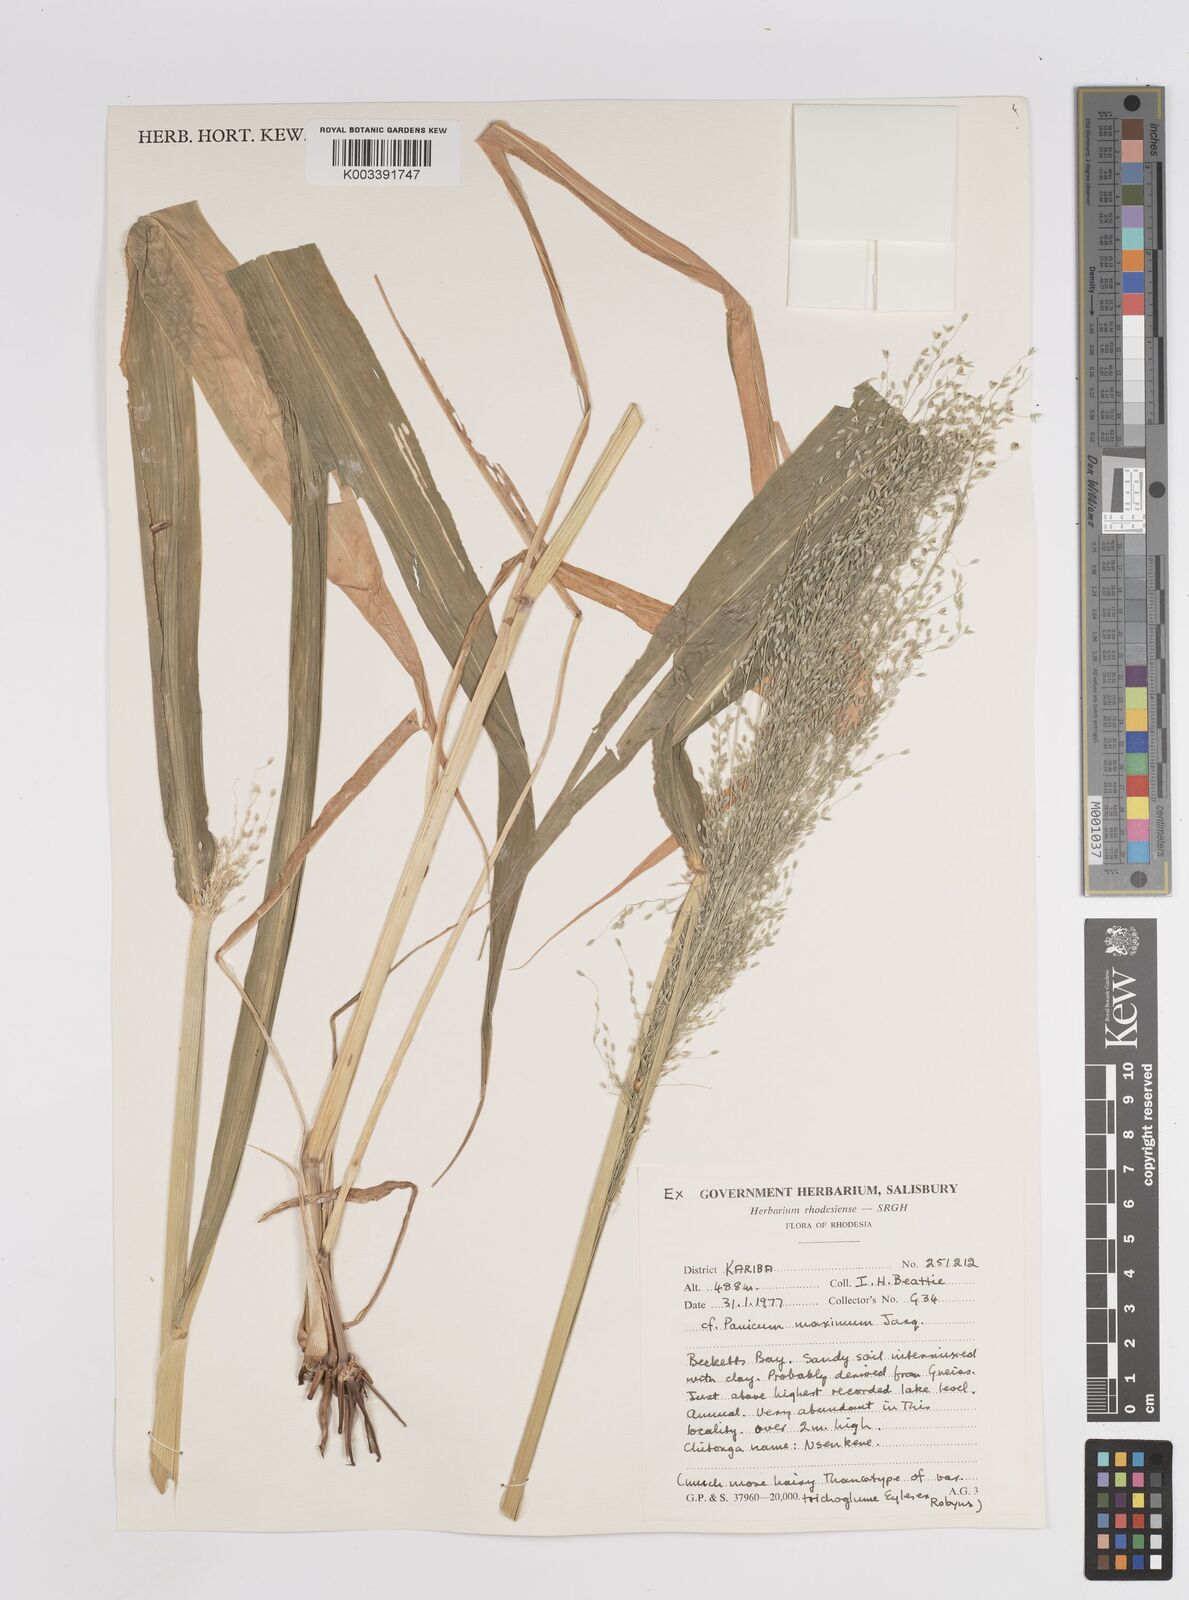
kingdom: Plantae
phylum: Tracheophyta
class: Liliopsida
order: Poales
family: Poaceae
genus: Megathyrsus
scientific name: Megathyrsus maximus
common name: Guineagrass
